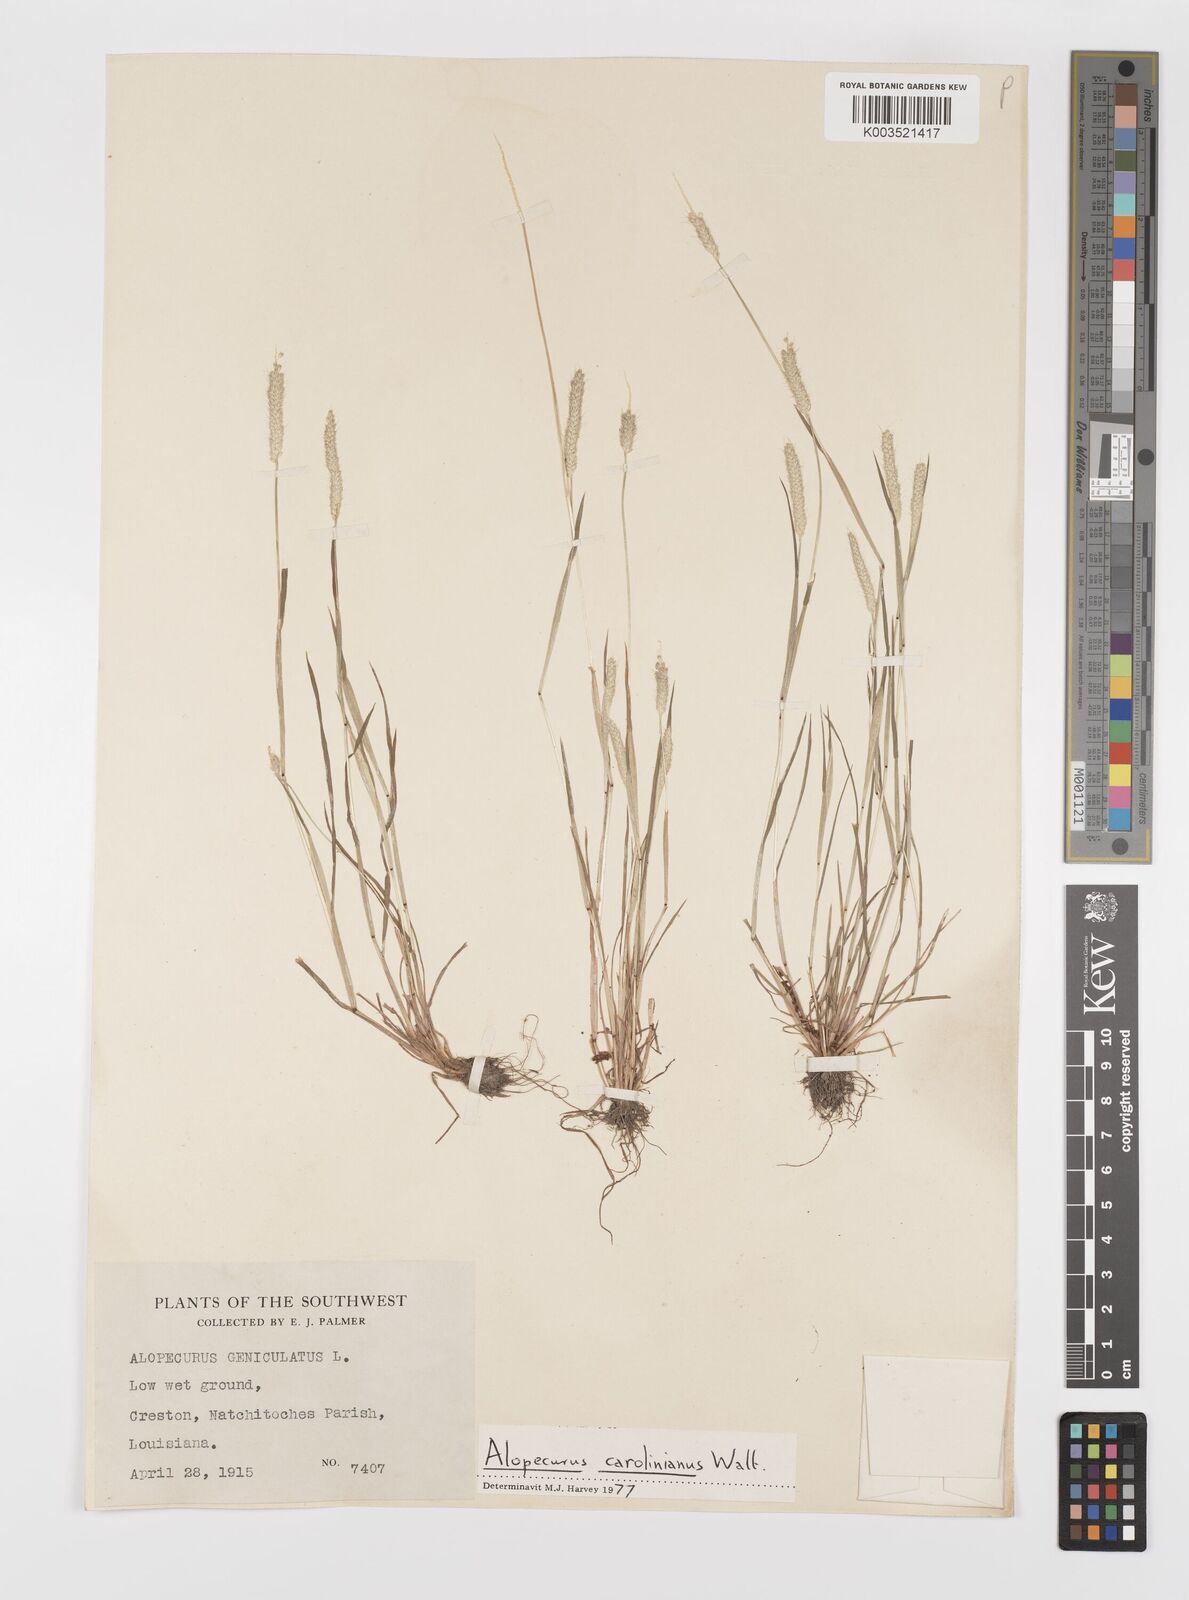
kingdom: Plantae
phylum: Tracheophyta
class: Liliopsida
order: Poales
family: Poaceae
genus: Alopecurus
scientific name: Alopecurus carolinianus
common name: Tufted foxtail
